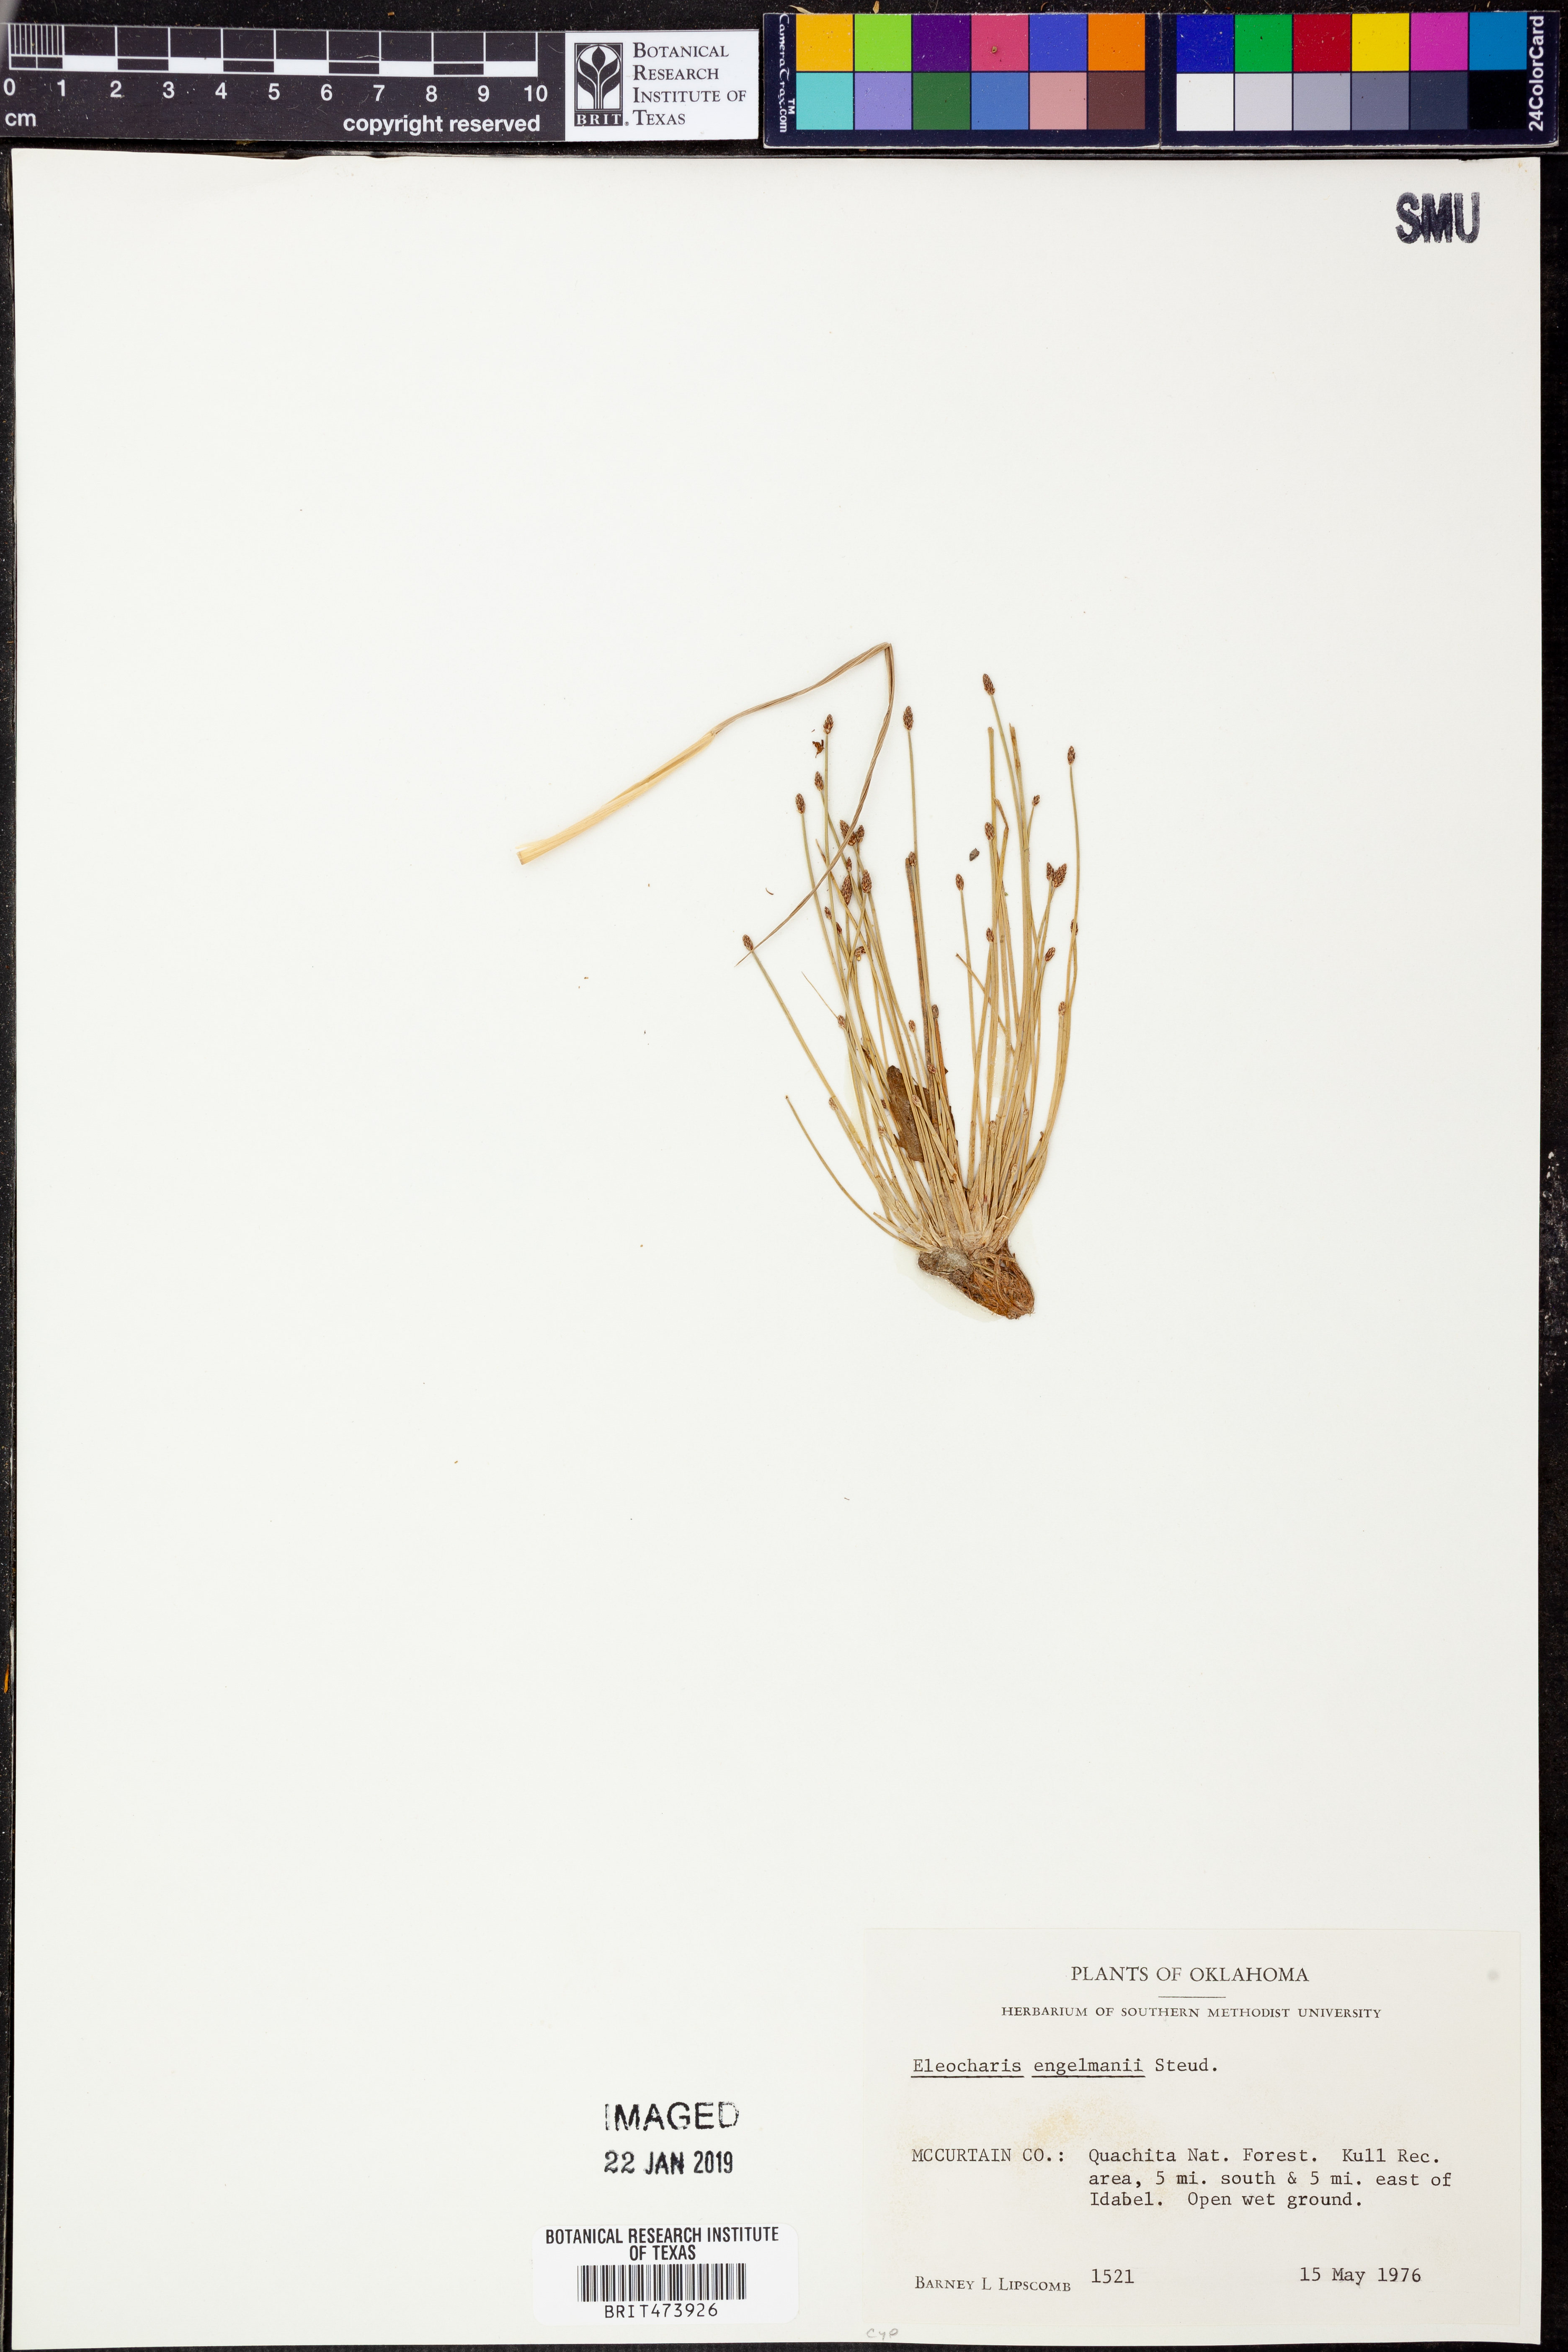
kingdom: Plantae
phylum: Tracheophyta
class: Liliopsida
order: Poales
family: Cyperaceae
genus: Eleocharis
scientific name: Eleocharis engelmannii
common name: Engelmann's spikerush
